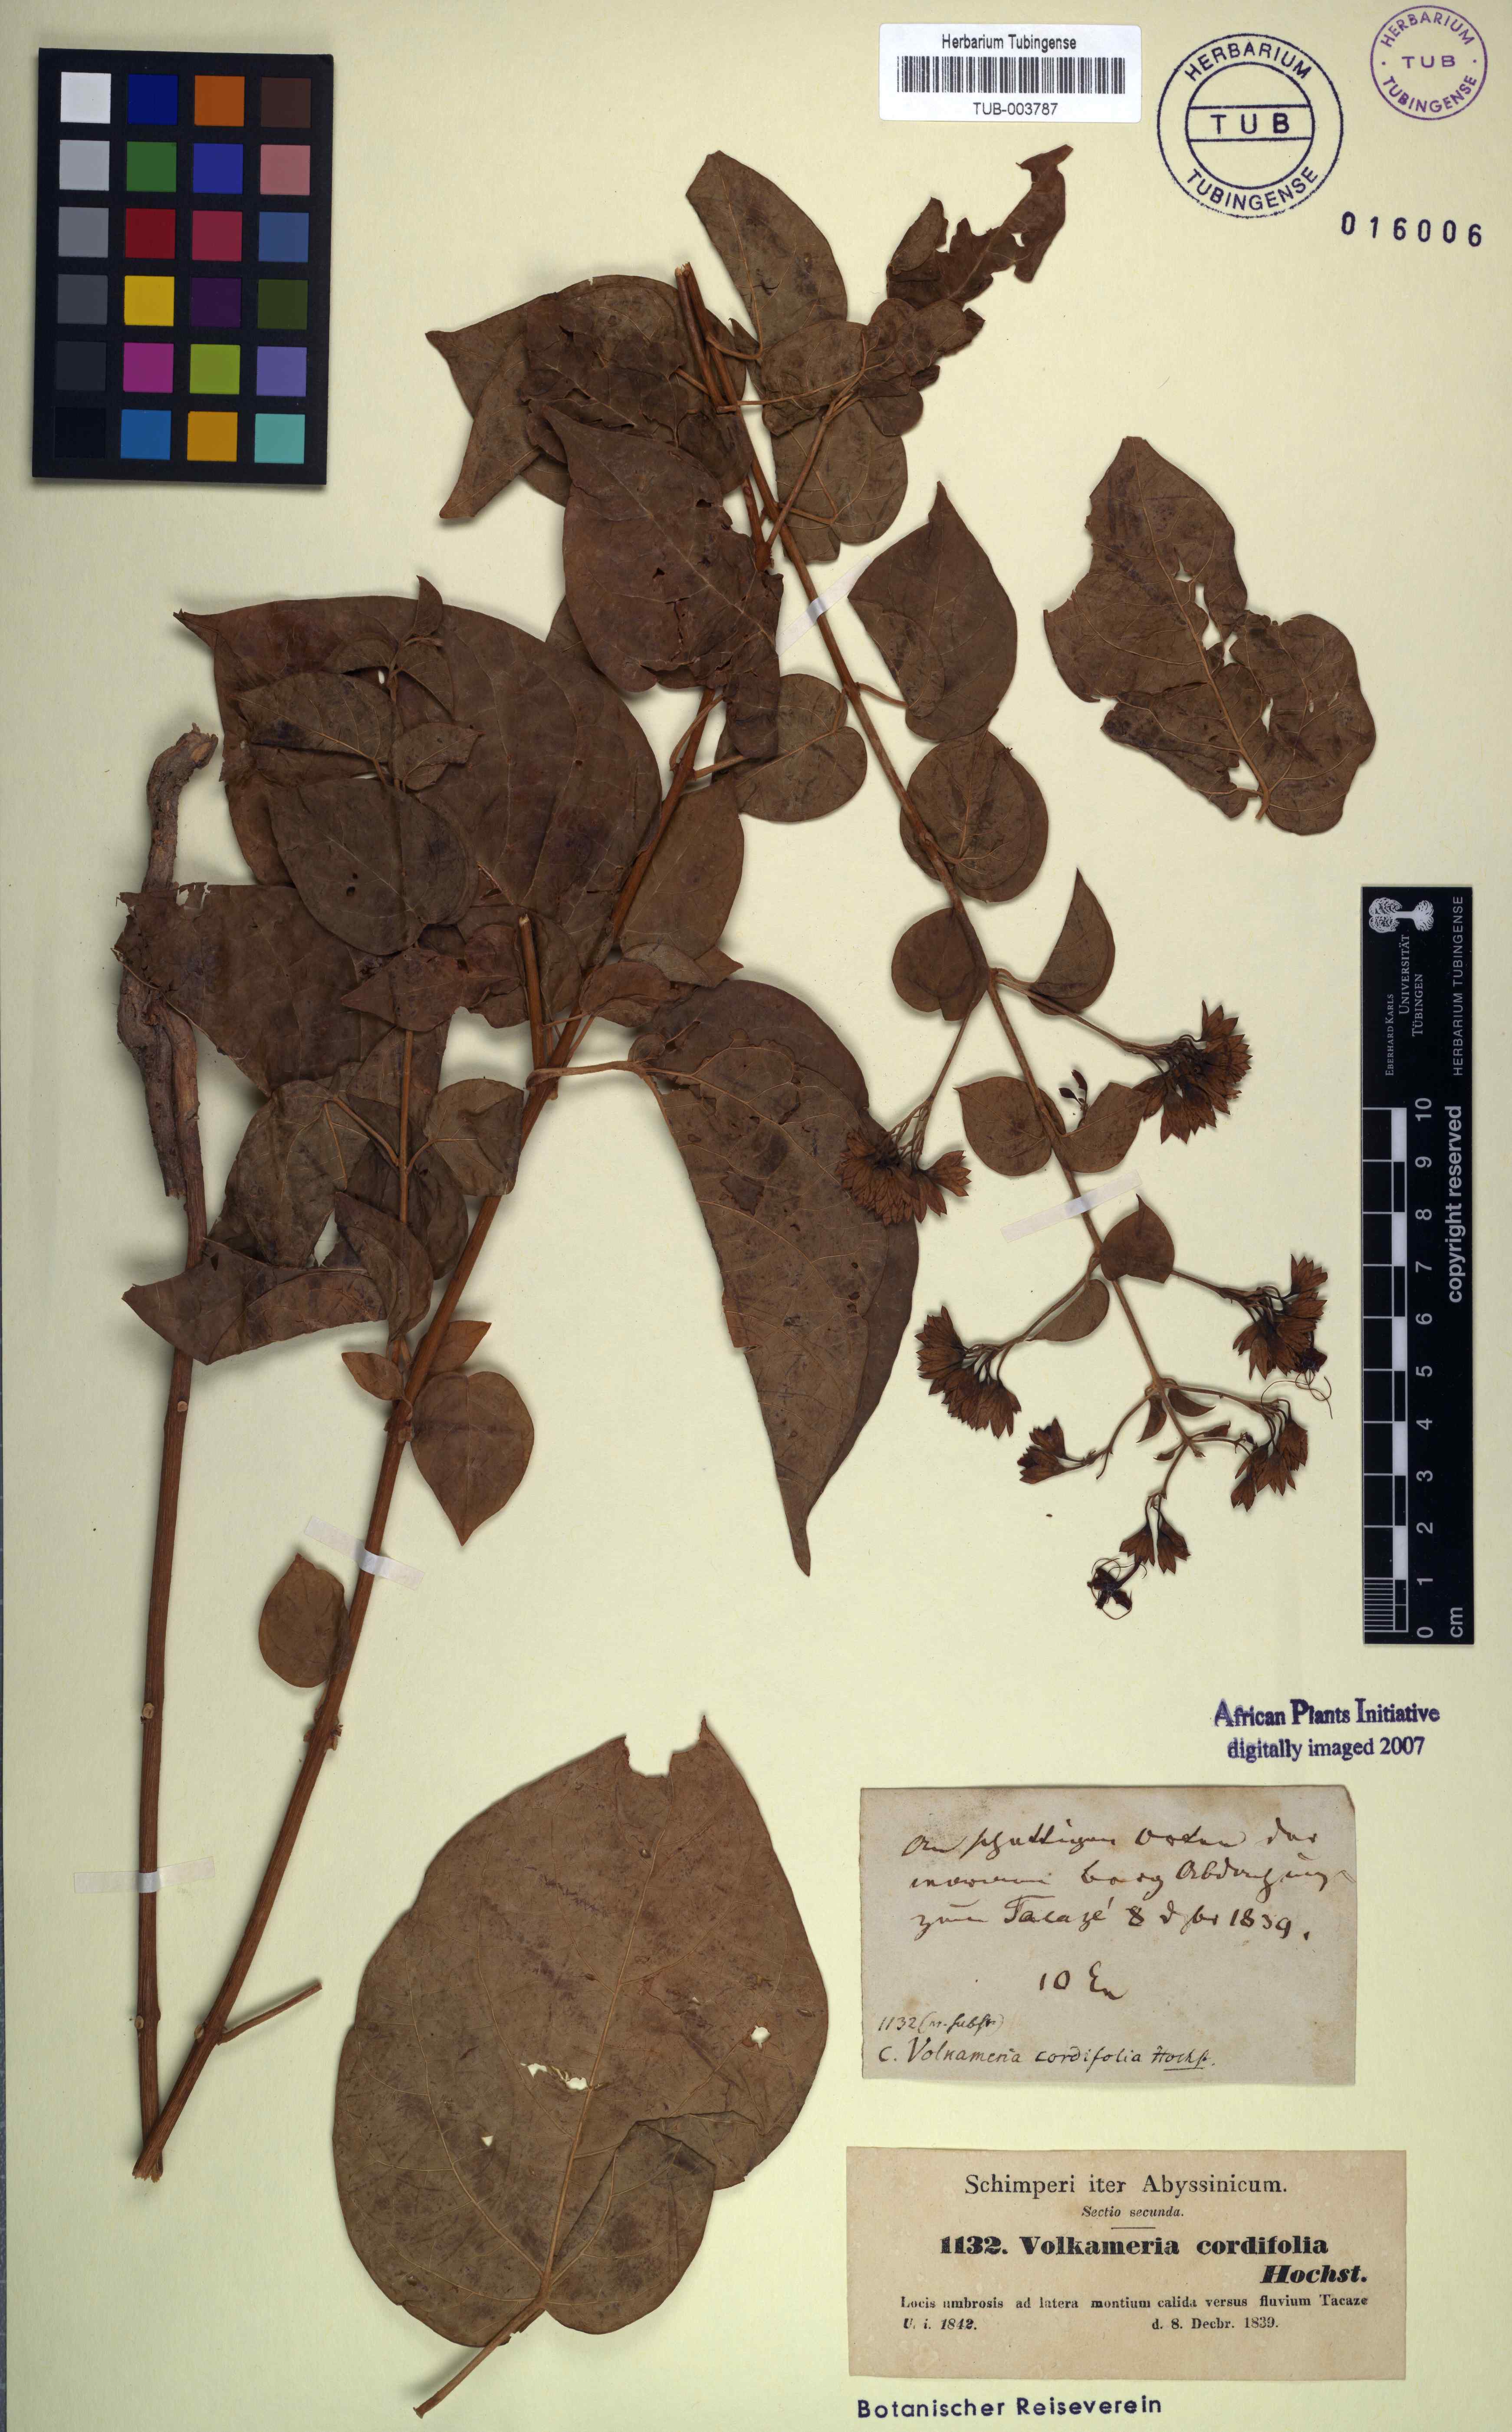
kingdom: Plantae
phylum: Tracheophyta
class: Magnoliopsida
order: Lamiales
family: Lamiaceae
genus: Clerodendrum
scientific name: Clerodendrum umbellatum
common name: Umbel clerodendrum
